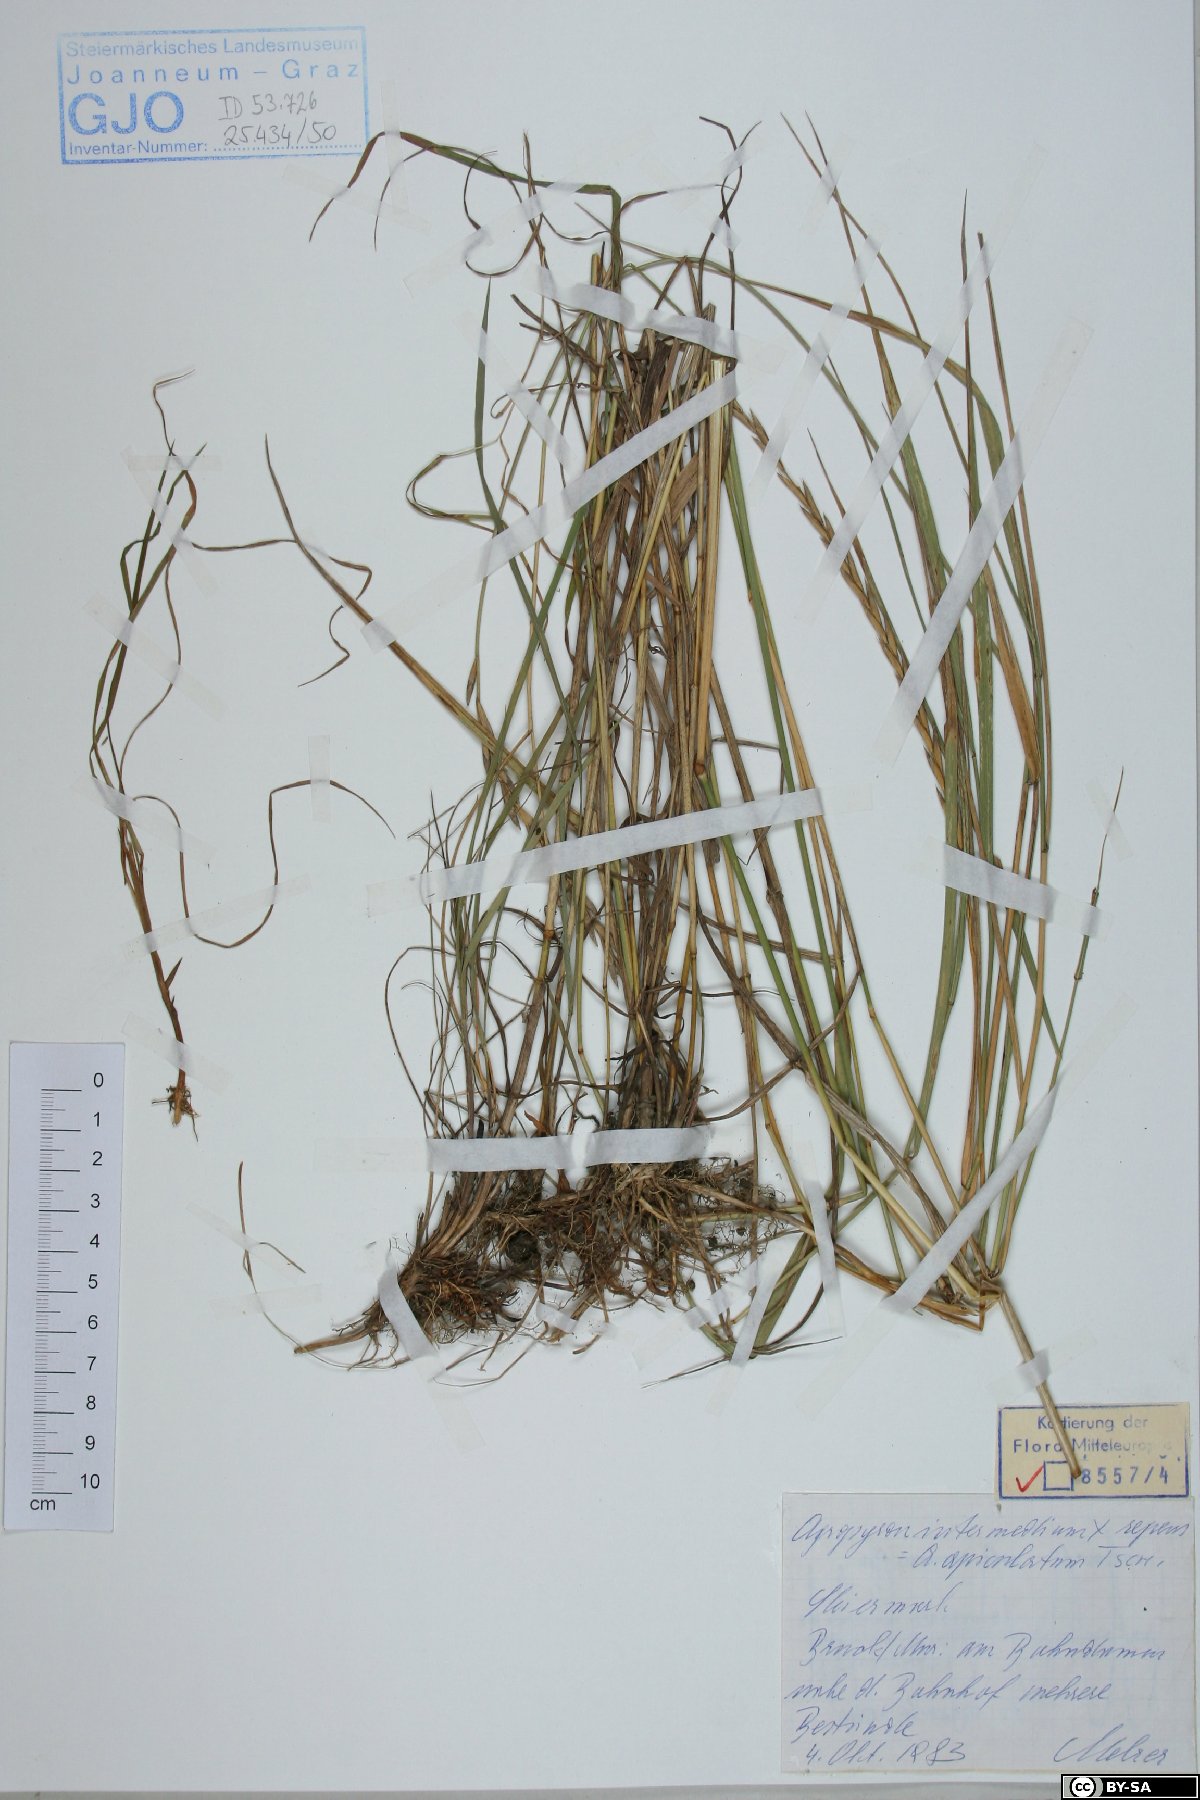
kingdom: Plantae
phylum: Tracheophyta
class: Liliopsida
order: Poales
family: Poaceae
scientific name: Poaceae
